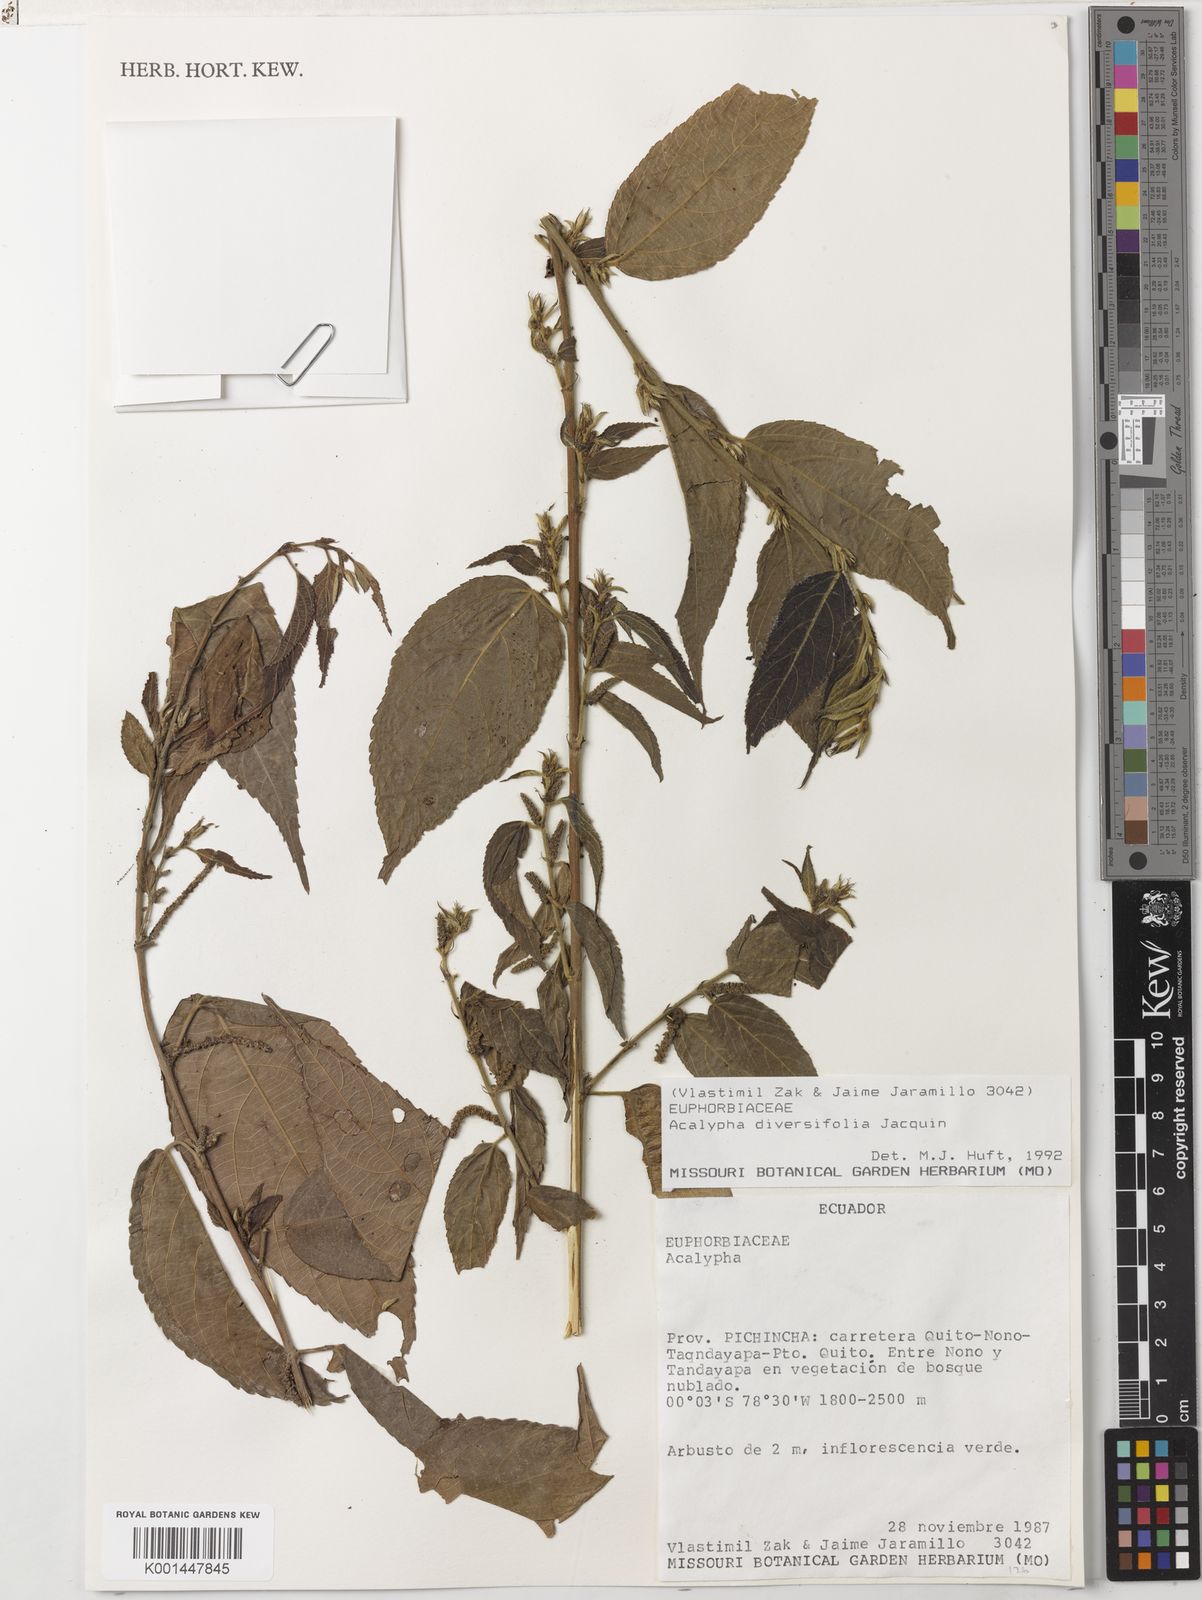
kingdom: Plantae
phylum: Tracheophyta
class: Magnoliopsida
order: Malpighiales
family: Euphorbiaceae
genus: Acalypha
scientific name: Acalypha diversifolia
